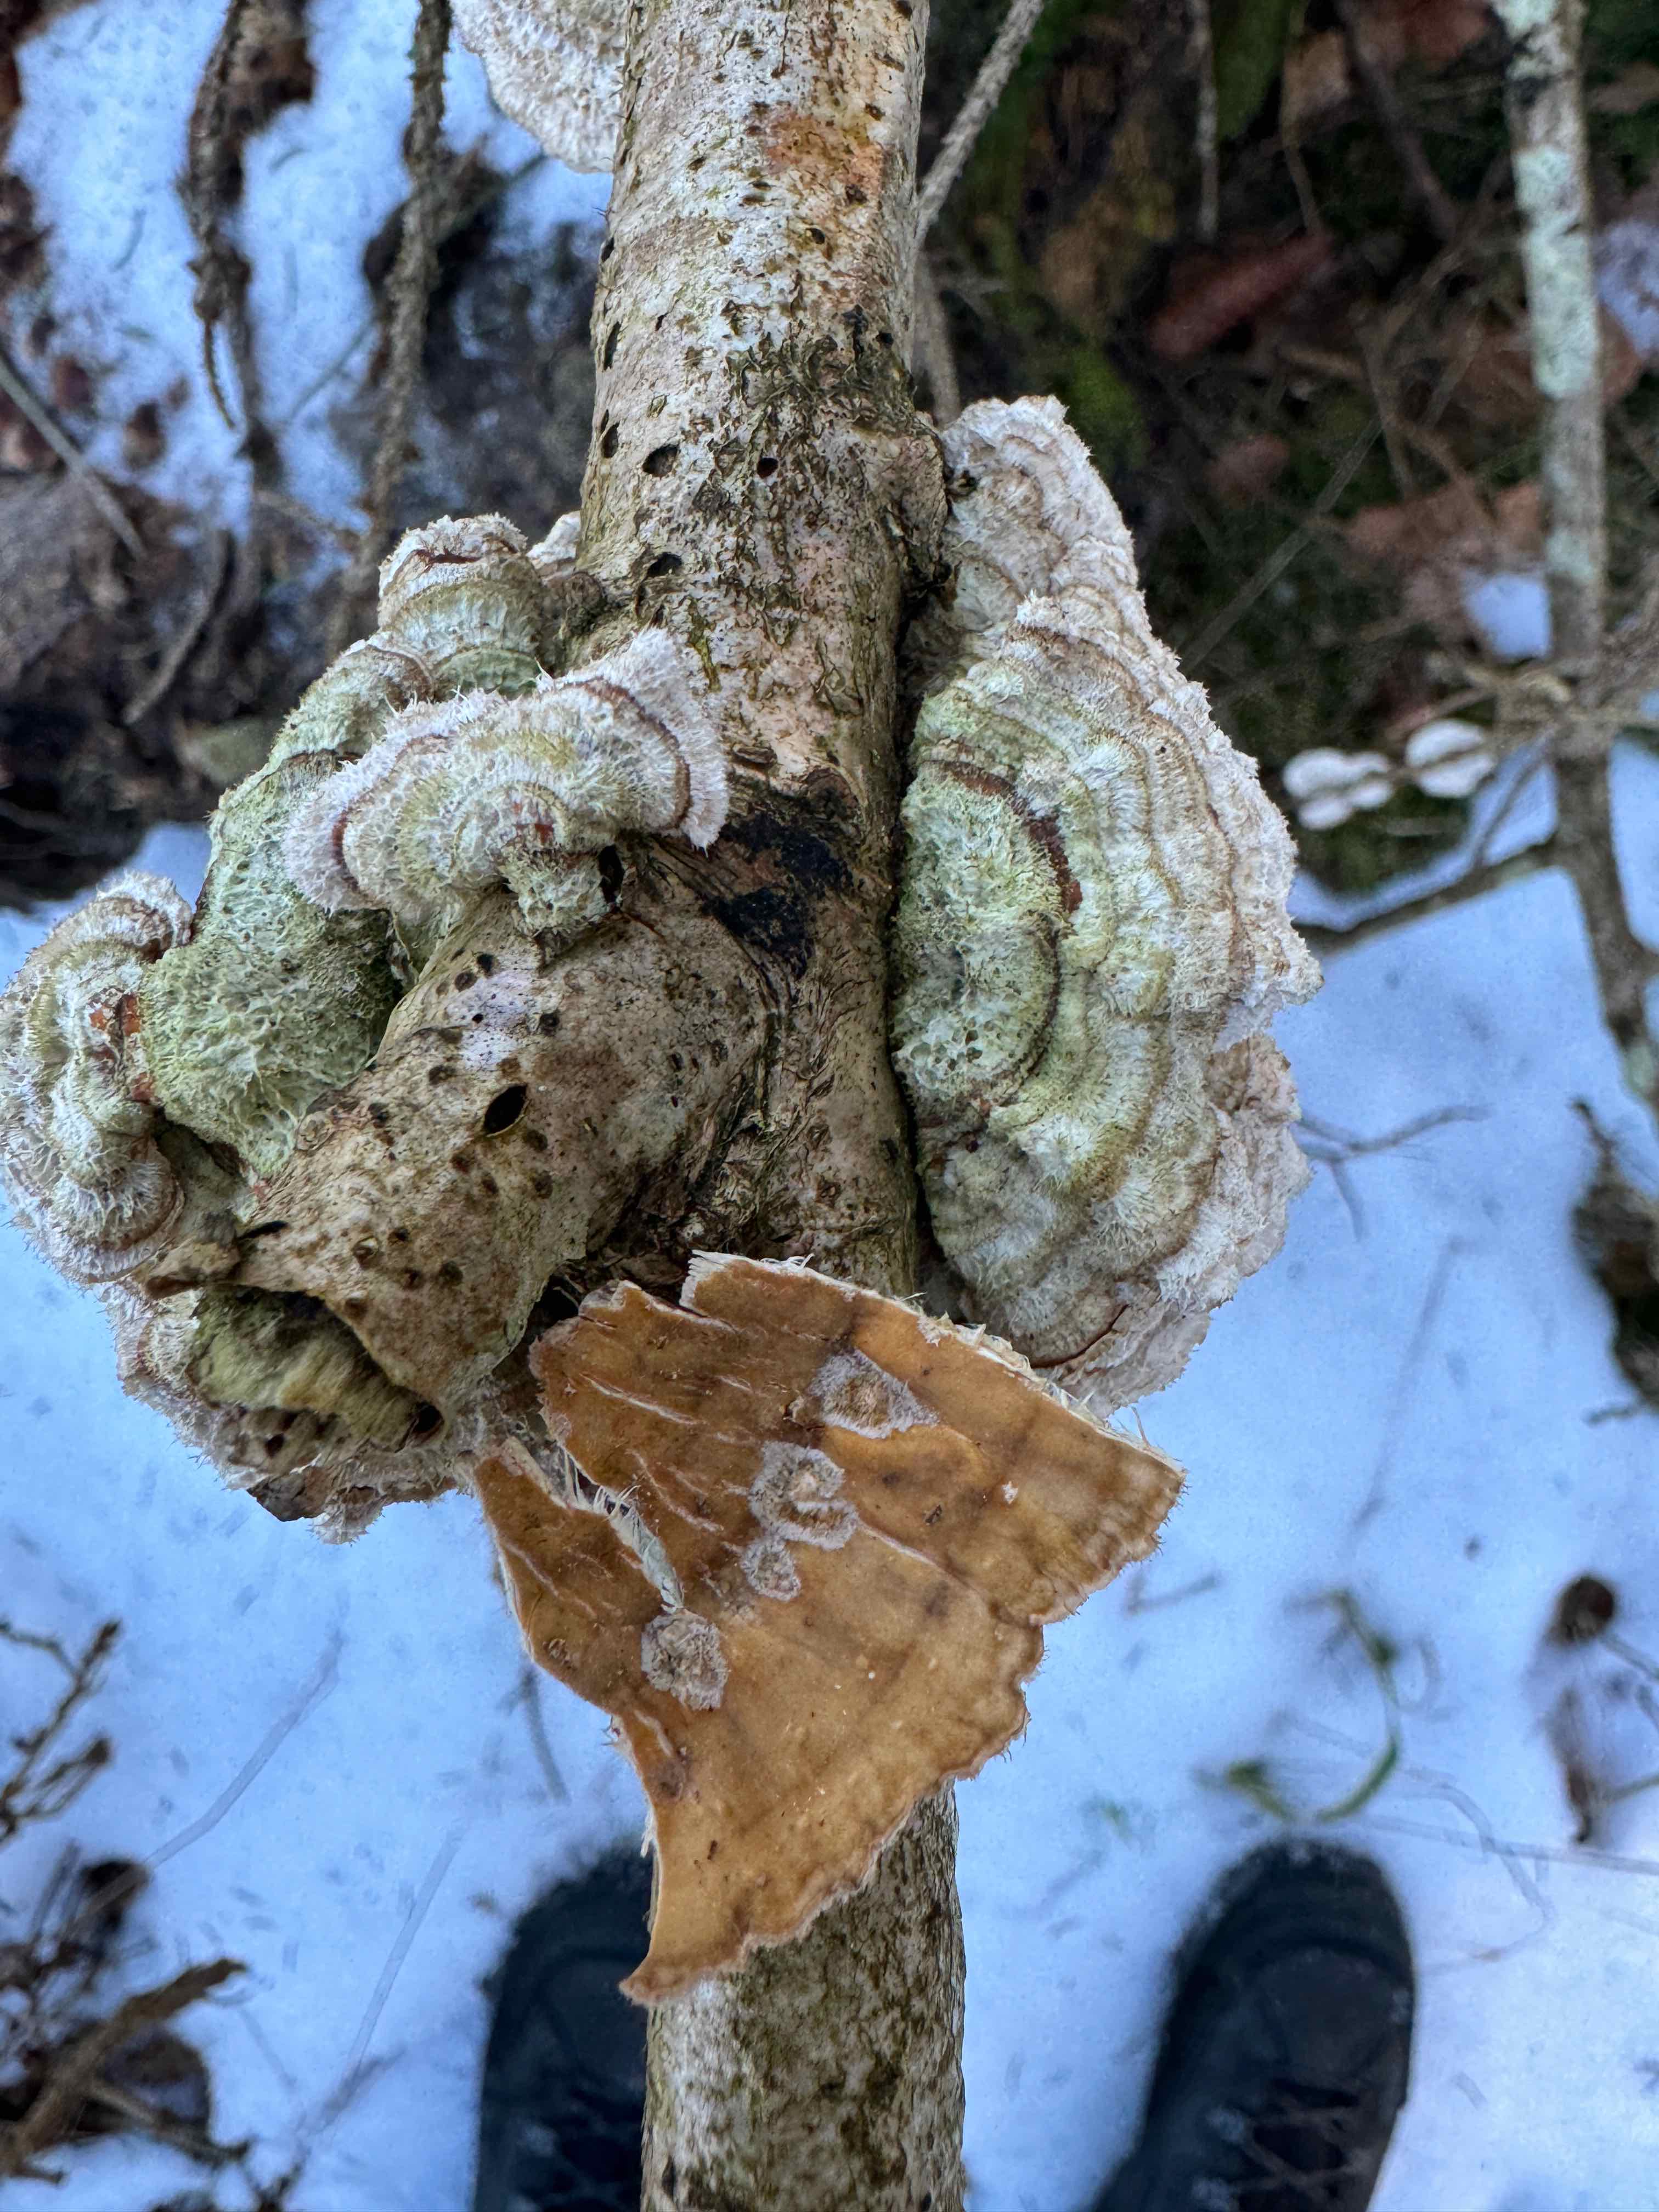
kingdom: Fungi
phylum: Basidiomycota
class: Agaricomycetes
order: Russulales
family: Stereaceae
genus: Stereum
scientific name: Stereum hirsutum
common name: håret lædersvamp
